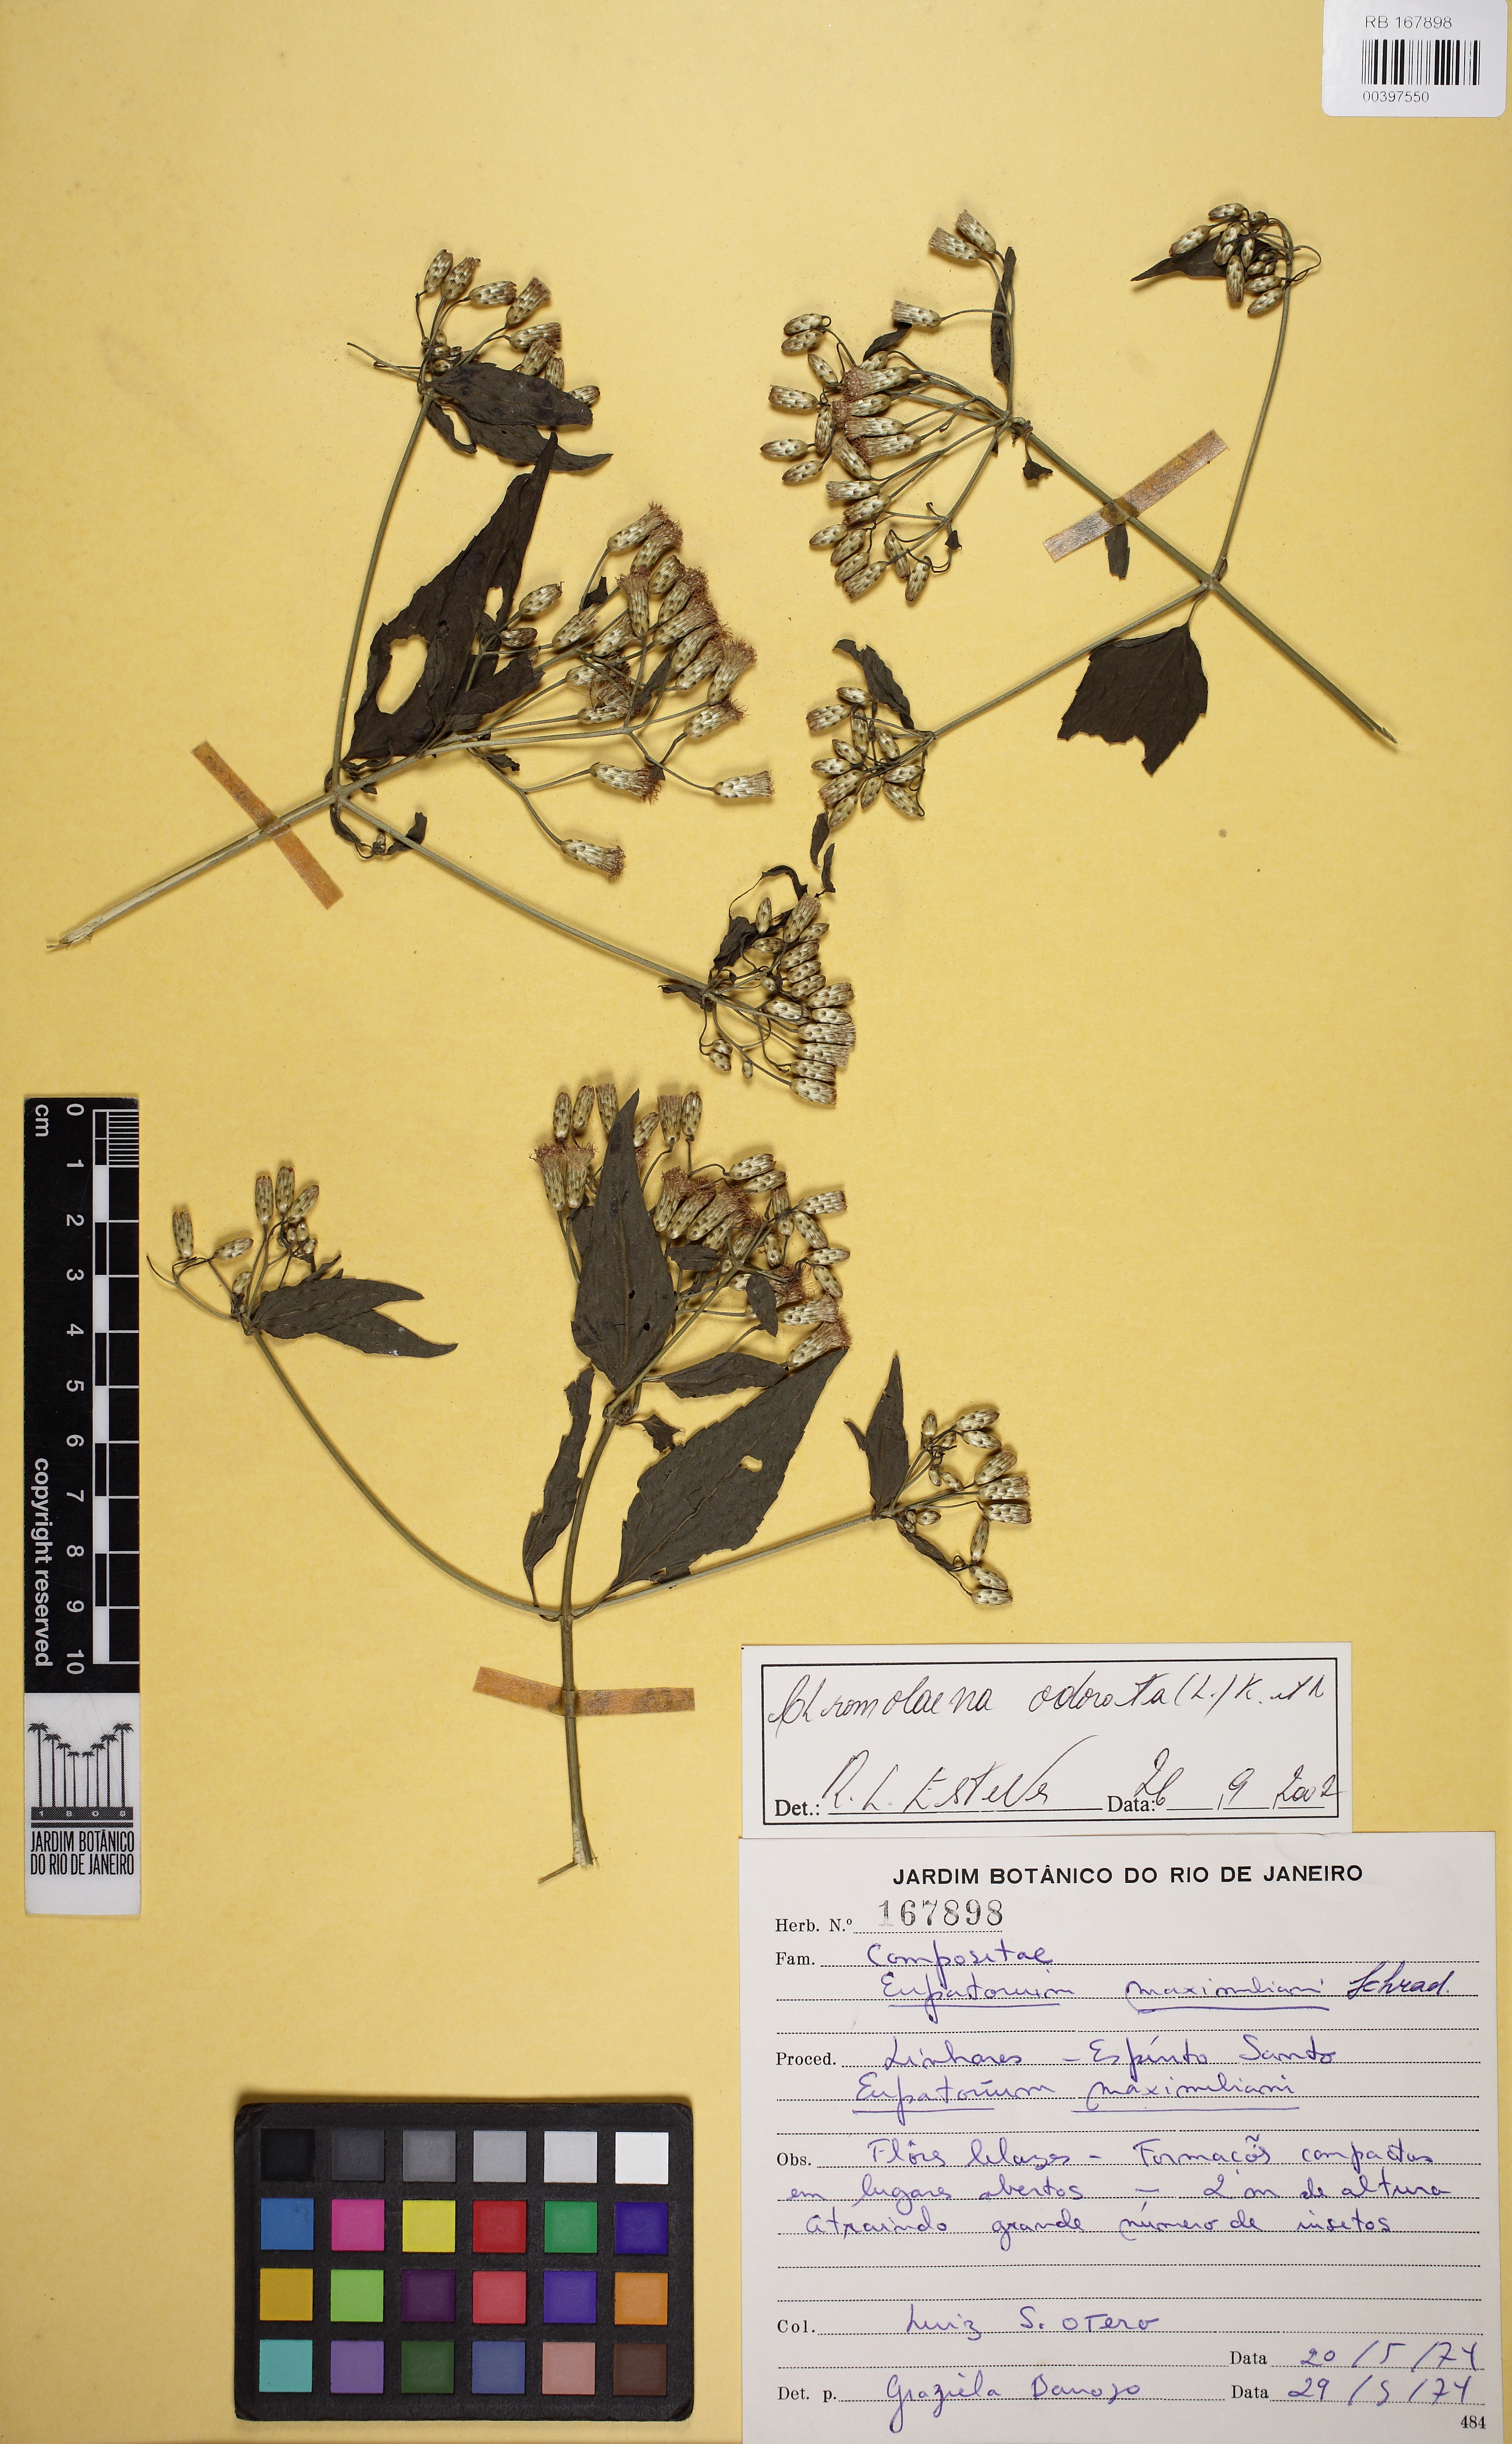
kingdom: Plantae
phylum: Tracheophyta
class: Magnoliopsida
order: Asterales
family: Asteraceae
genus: Chromolaena
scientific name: Chromolaena odorata
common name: Siamweed
